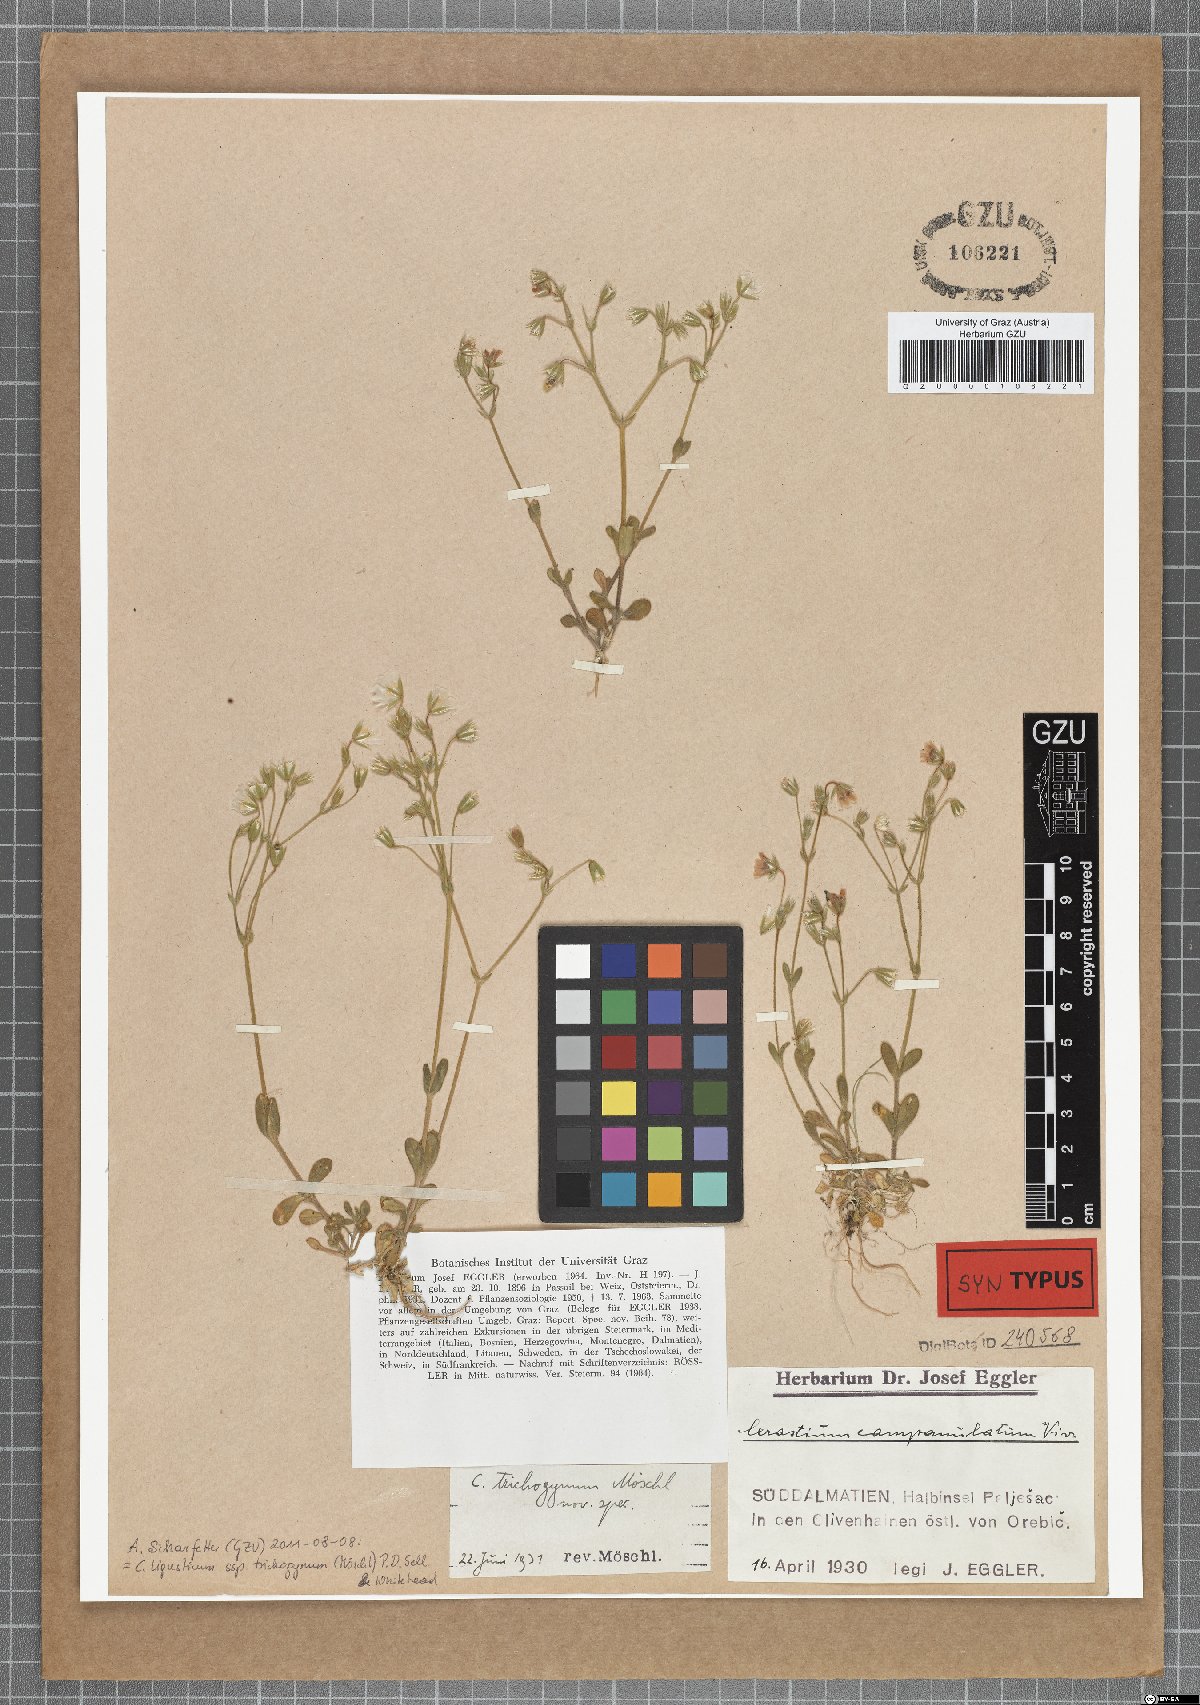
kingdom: Plantae
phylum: Tracheophyta
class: Magnoliopsida
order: Caryophyllales
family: Caryophyllaceae
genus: Cerastium
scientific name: Cerastium ligusticum
